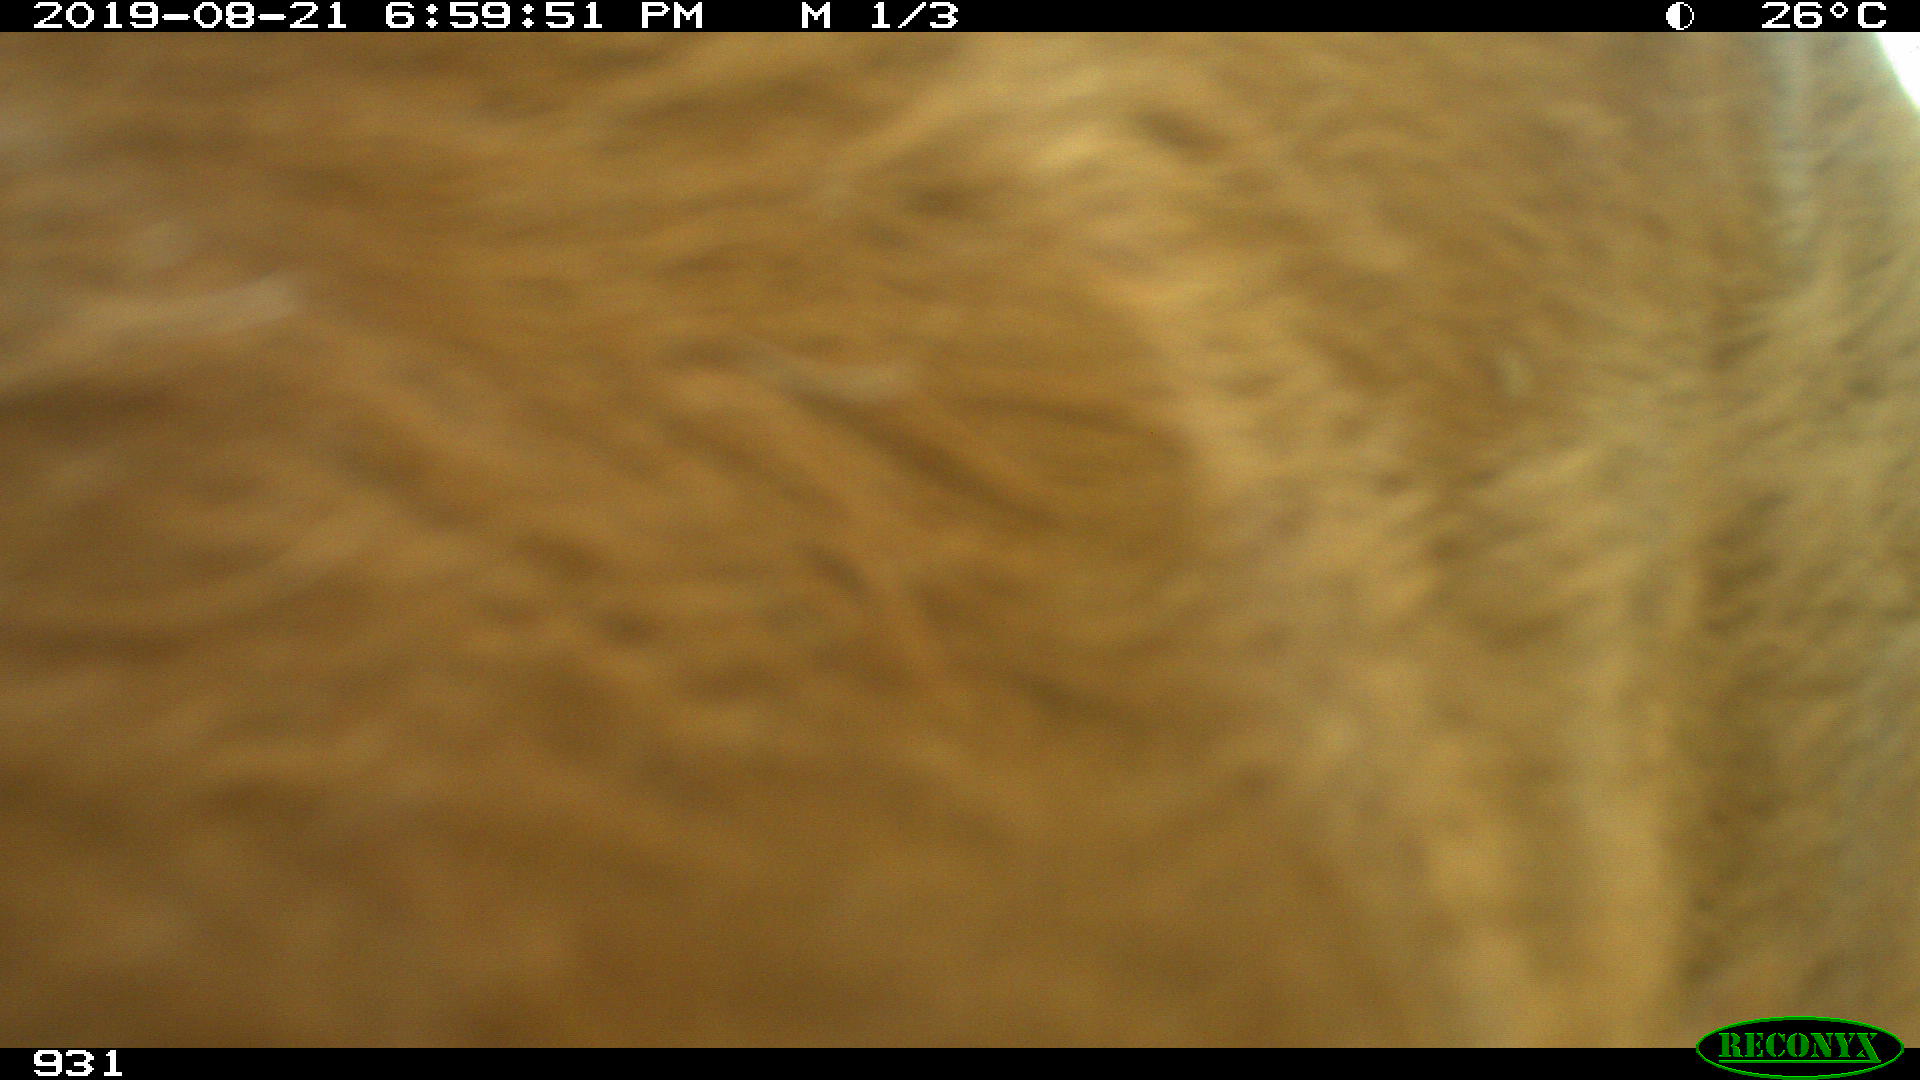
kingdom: Animalia
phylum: Chordata
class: Mammalia
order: Artiodactyla
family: Bovidae
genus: Bos
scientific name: Bos taurus
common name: Domesticated cattle
